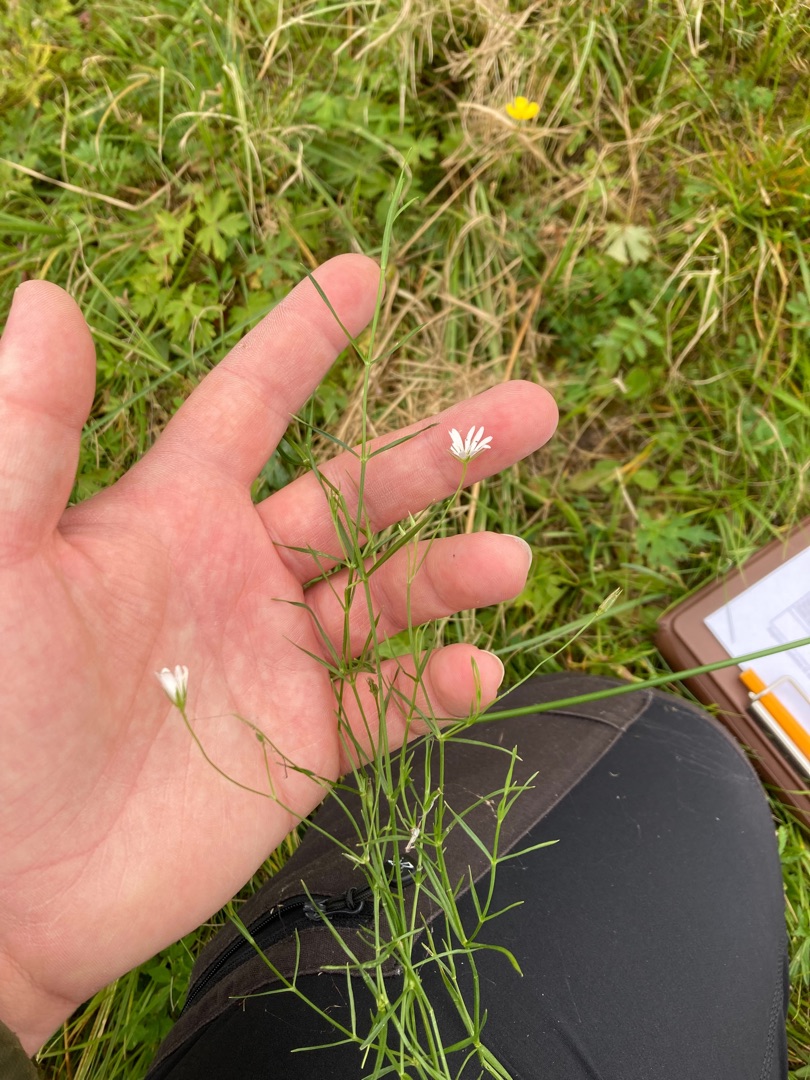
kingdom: Plantae
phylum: Tracheophyta
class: Magnoliopsida
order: Caryophyllales
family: Caryophyllaceae
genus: Stellaria
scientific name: Stellaria palustris
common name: Kær-fladstjerne
